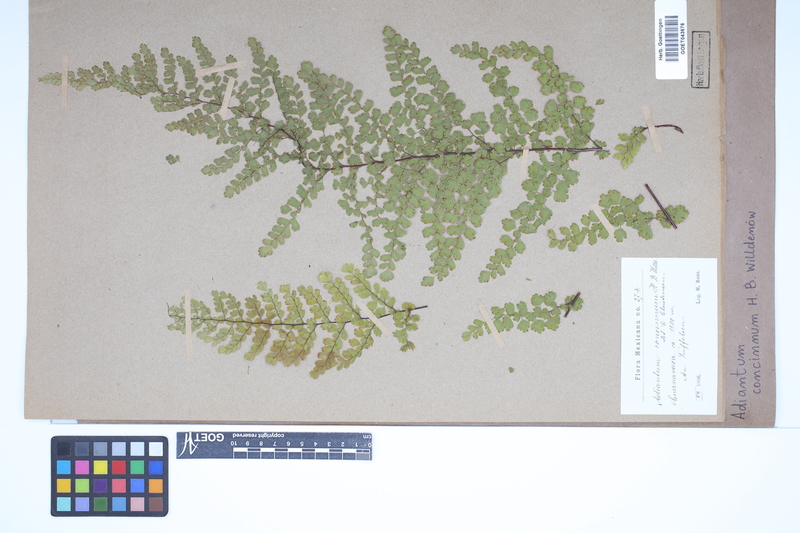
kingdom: Plantae
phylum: Tracheophyta
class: Polypodiopsida
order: Polypodiales
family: Pteridaceae
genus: Adiantum
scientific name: Adiantum concinnum
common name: Brittle maidenhair fern
